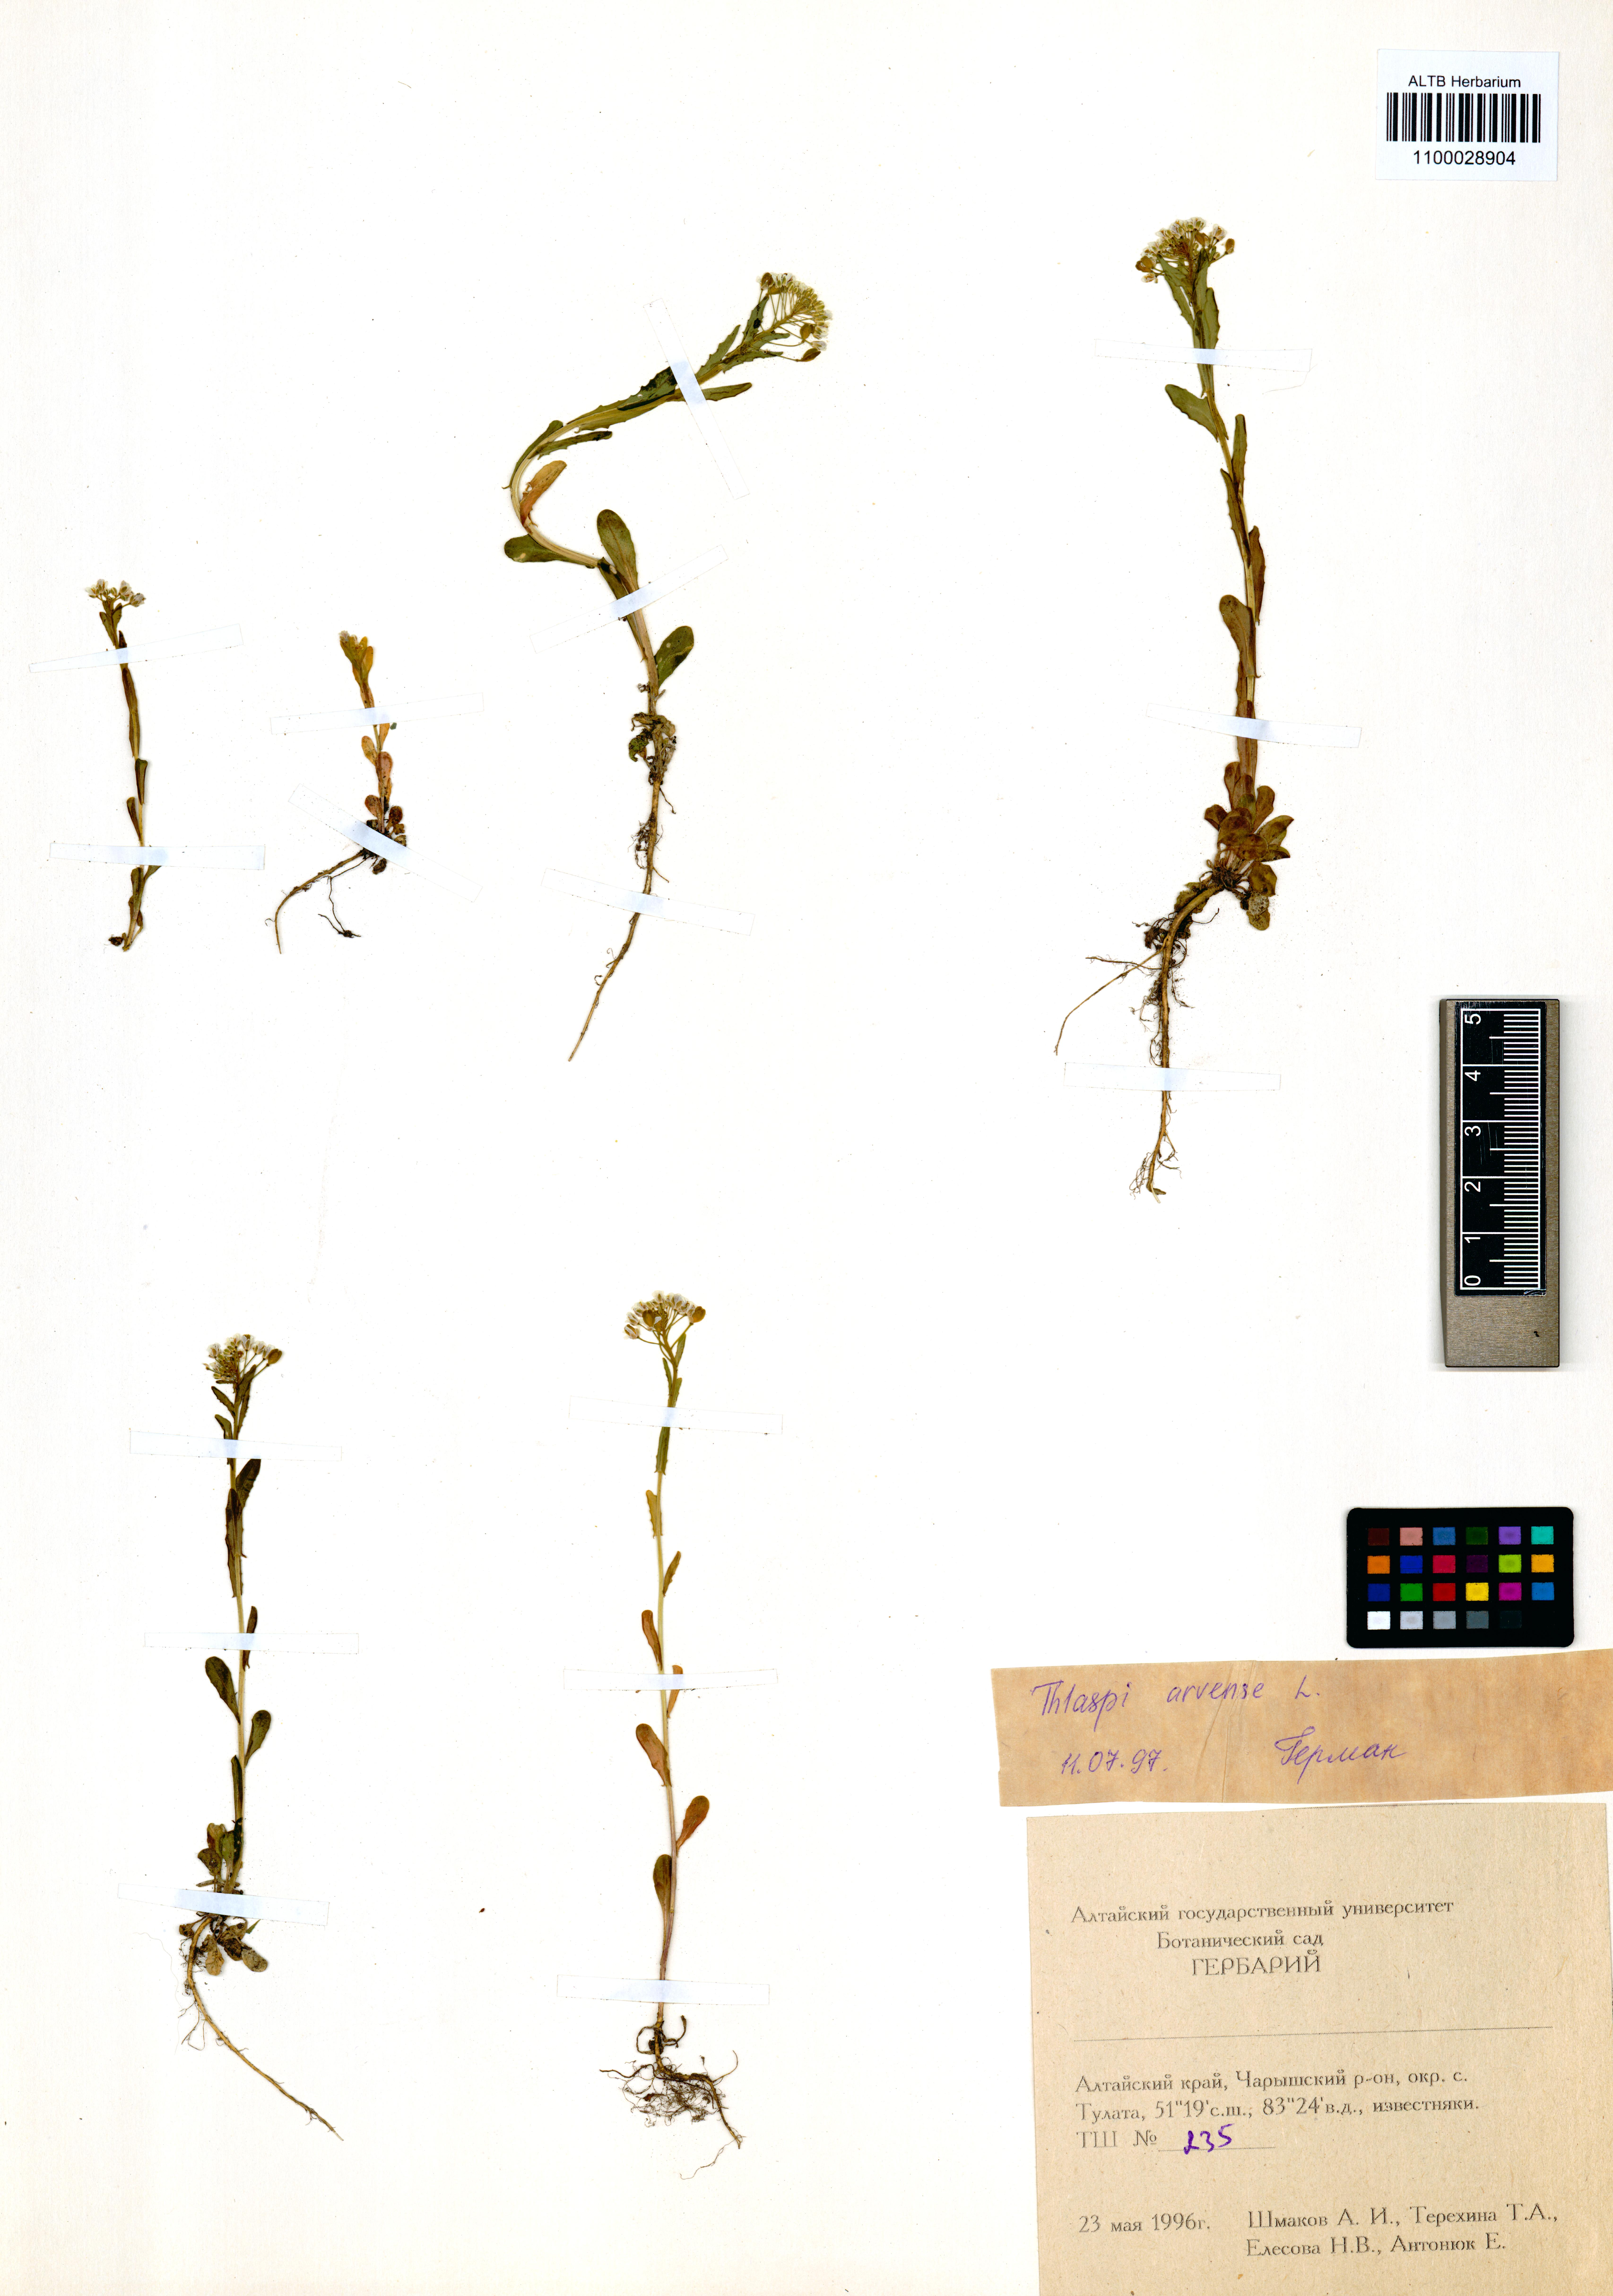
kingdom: Plantae
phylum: Tracheophyta
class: Magnoliopsida
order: Brassicales
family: Brassicaceae
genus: Thlaspi
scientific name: Thlaspi arvense
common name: Field pennycress
